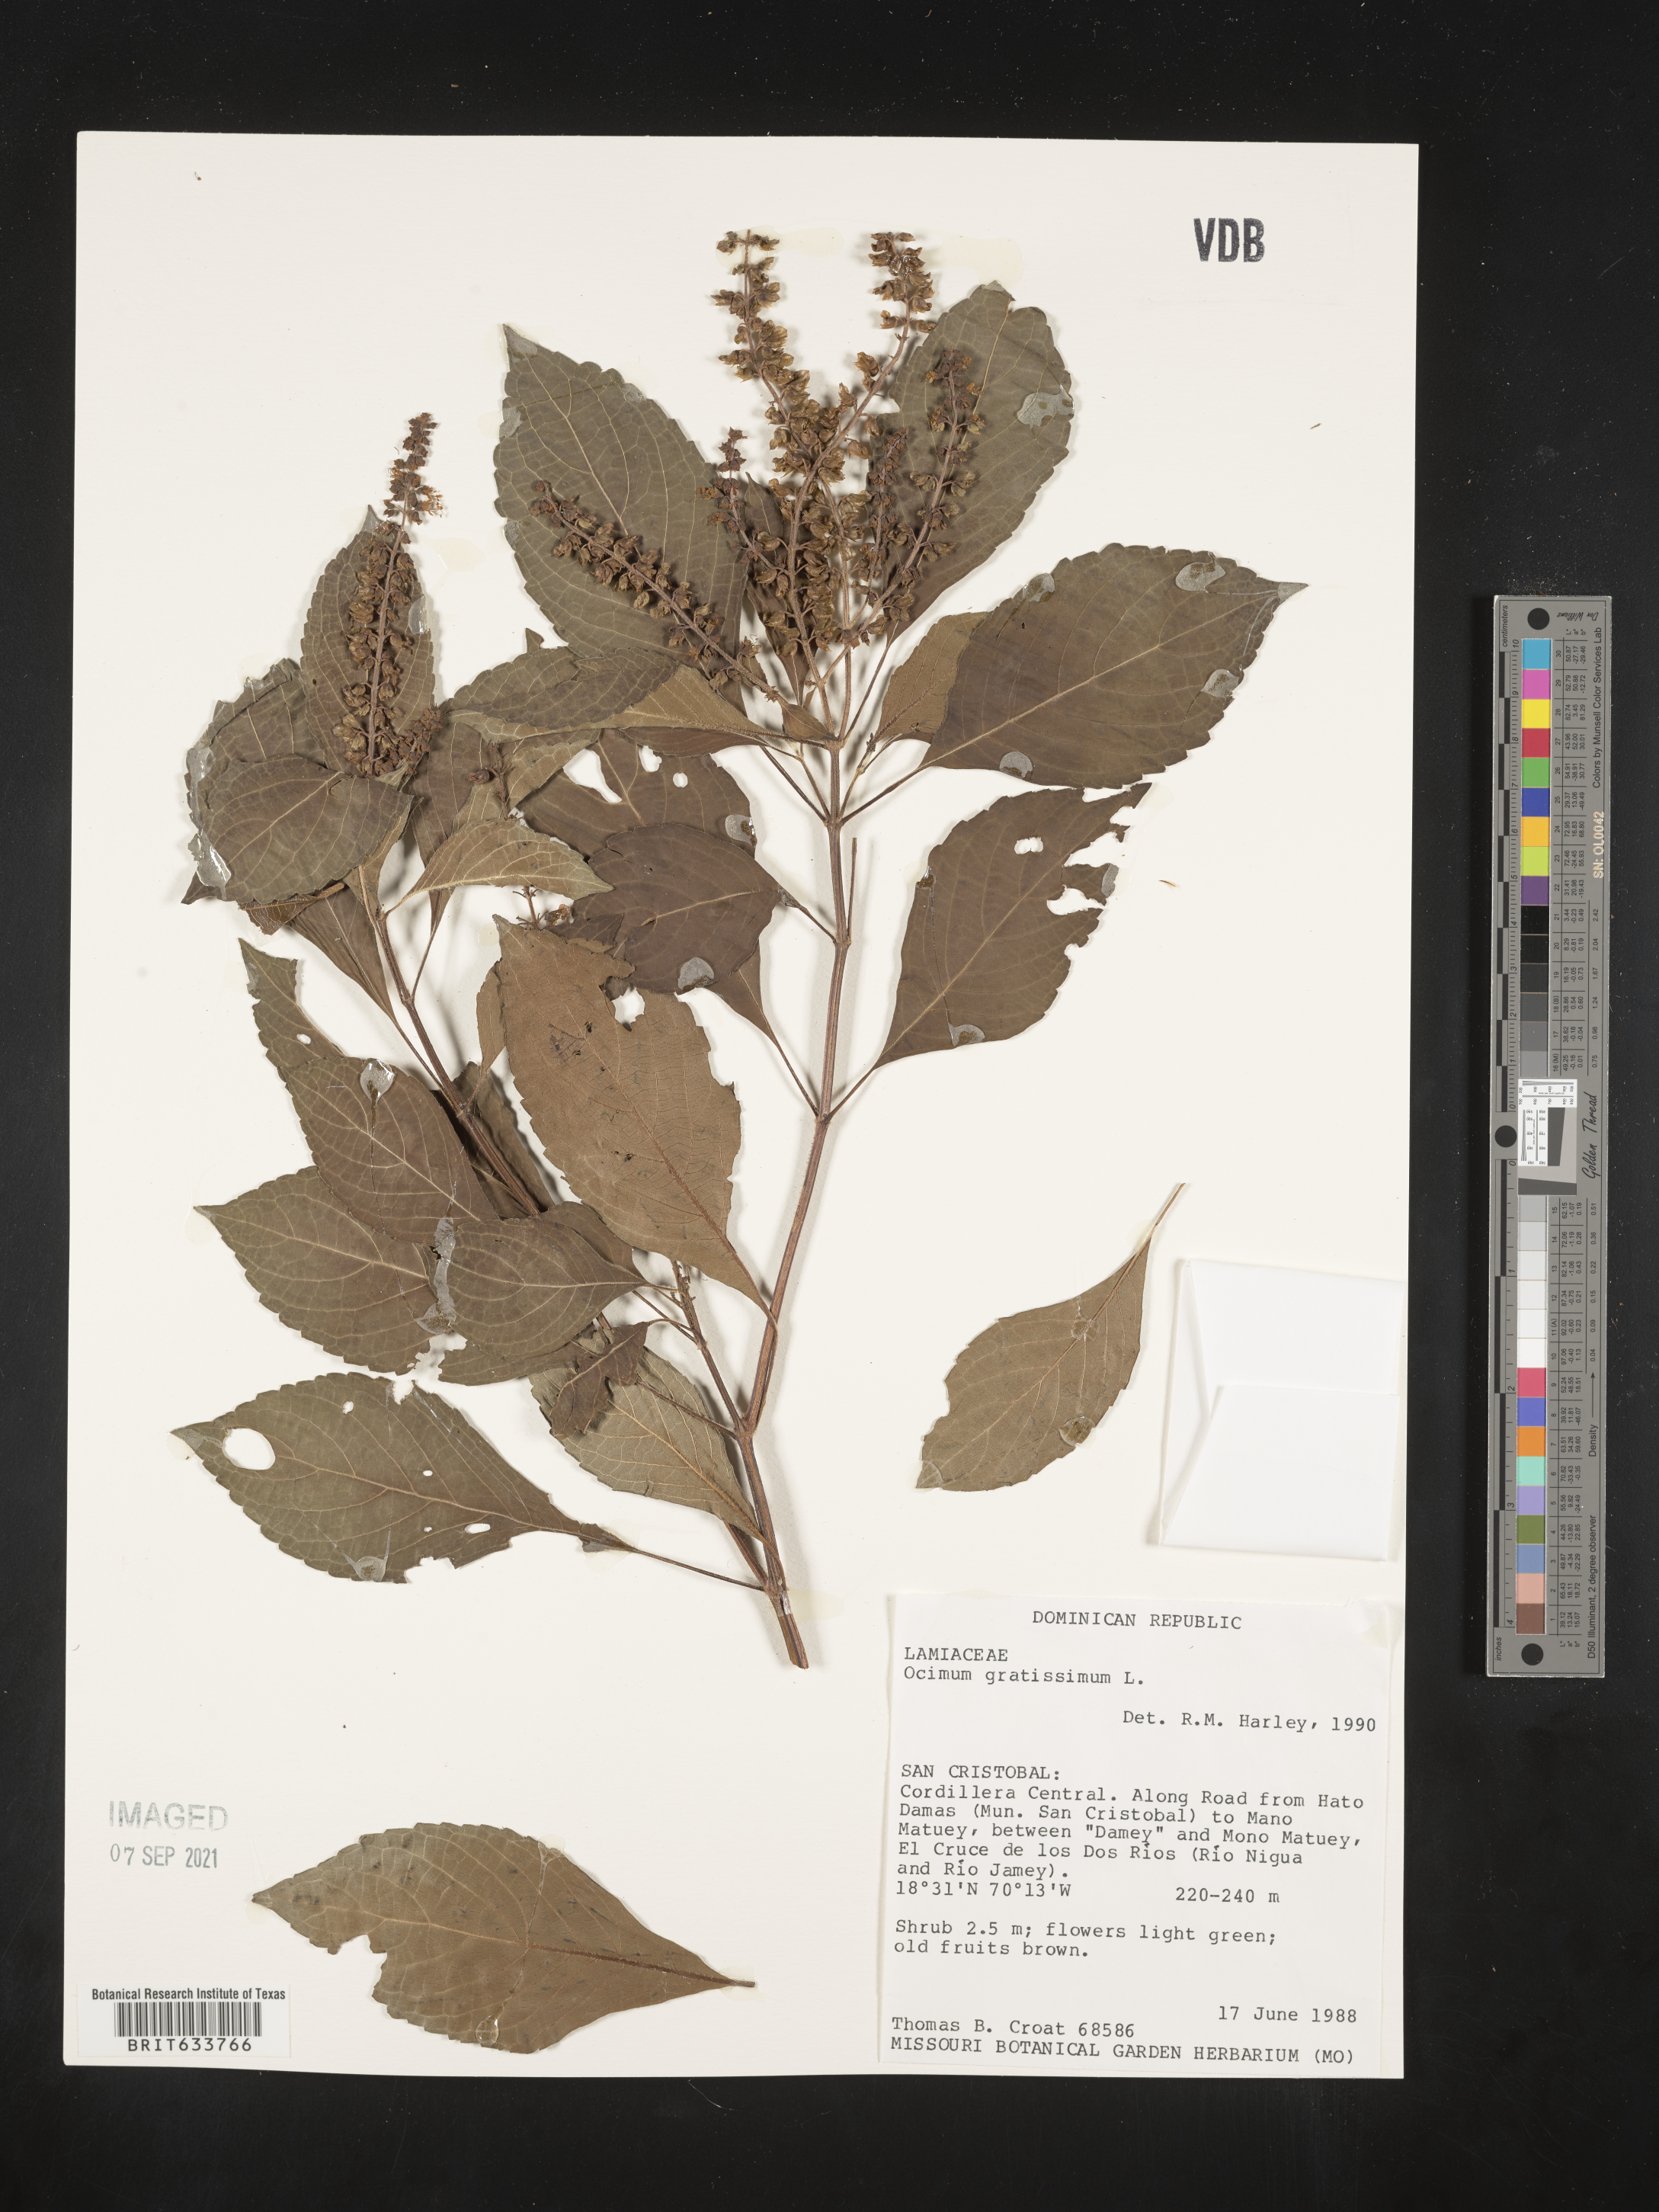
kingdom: Plantae
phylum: Tracheophyta
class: Magnoliopsida
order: Lamiales
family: Lamiaceae
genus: Ocimum
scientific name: Ocimum
